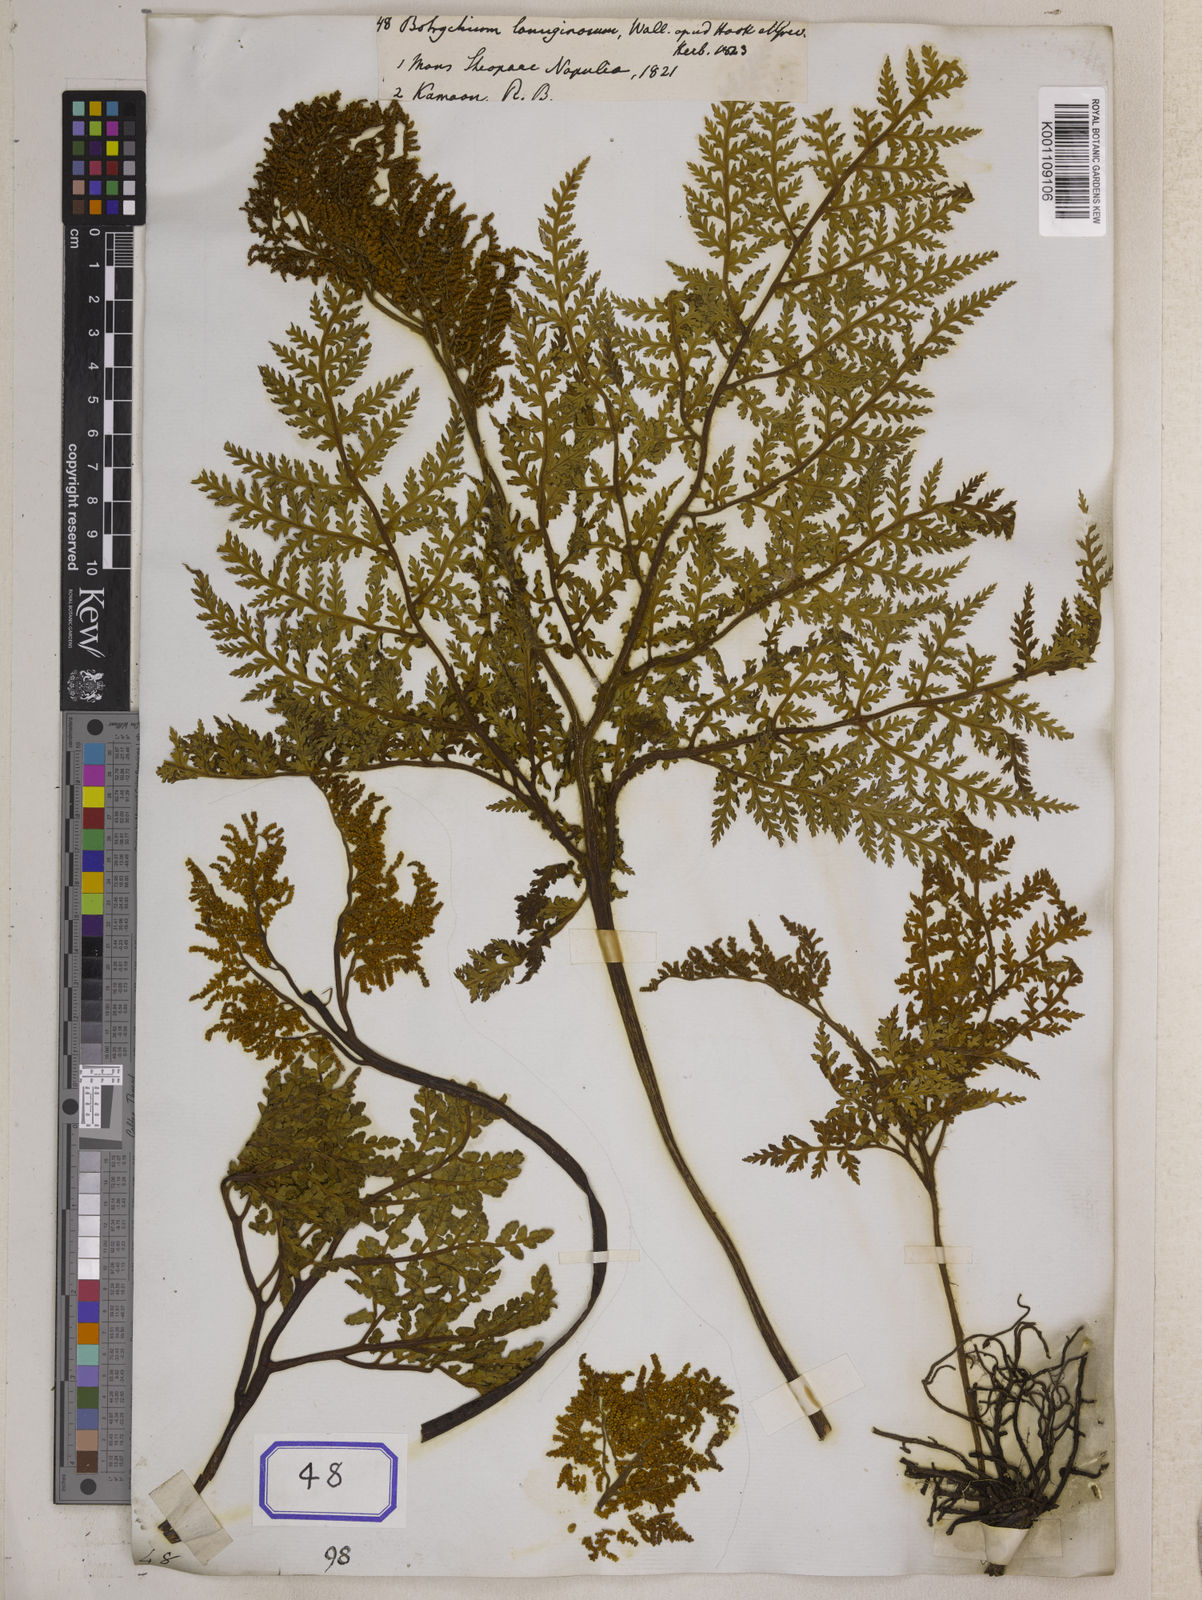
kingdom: Plantae
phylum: Tracheophyta
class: Polypodiopsida
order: Ophioglossales
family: Ophioglossaceae
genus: Japanobotrychum
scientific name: Japanobotrychum lanuginosum
